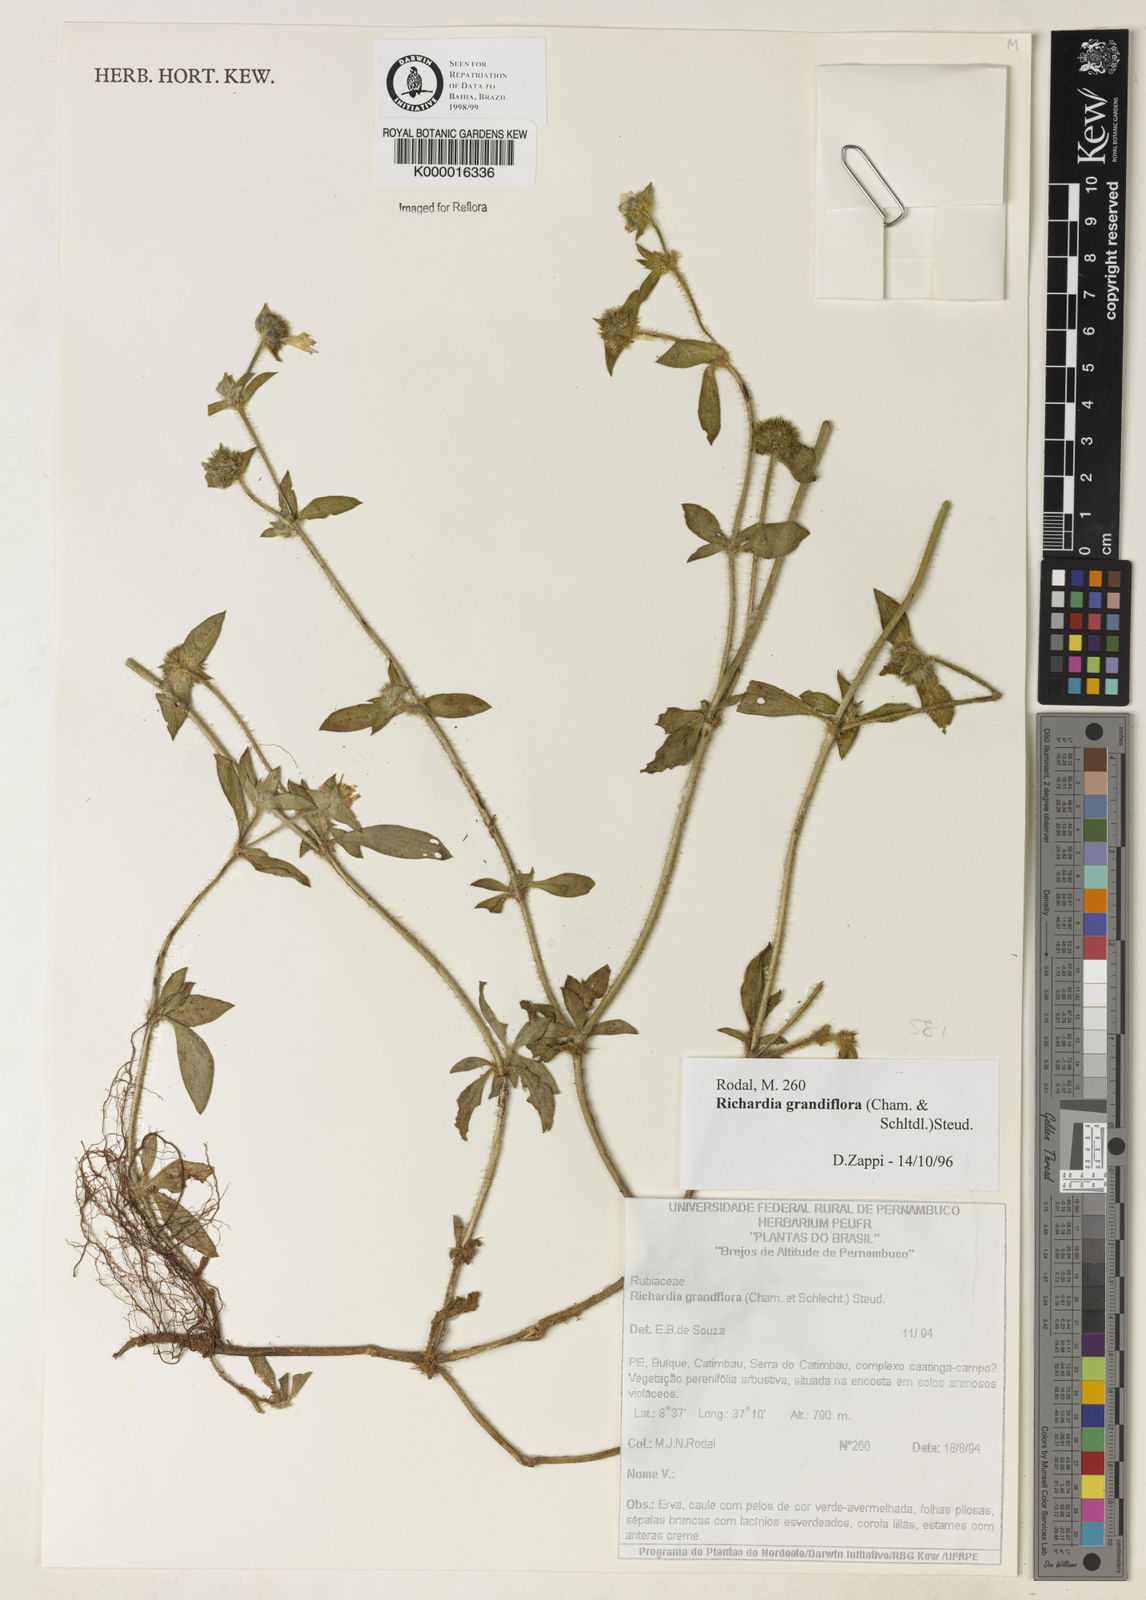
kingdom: Plantae
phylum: Tracheophyta
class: Magnoliopsida
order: Gentianales
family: Rubiaceae
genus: Richardia
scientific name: Richardia grandiflora
